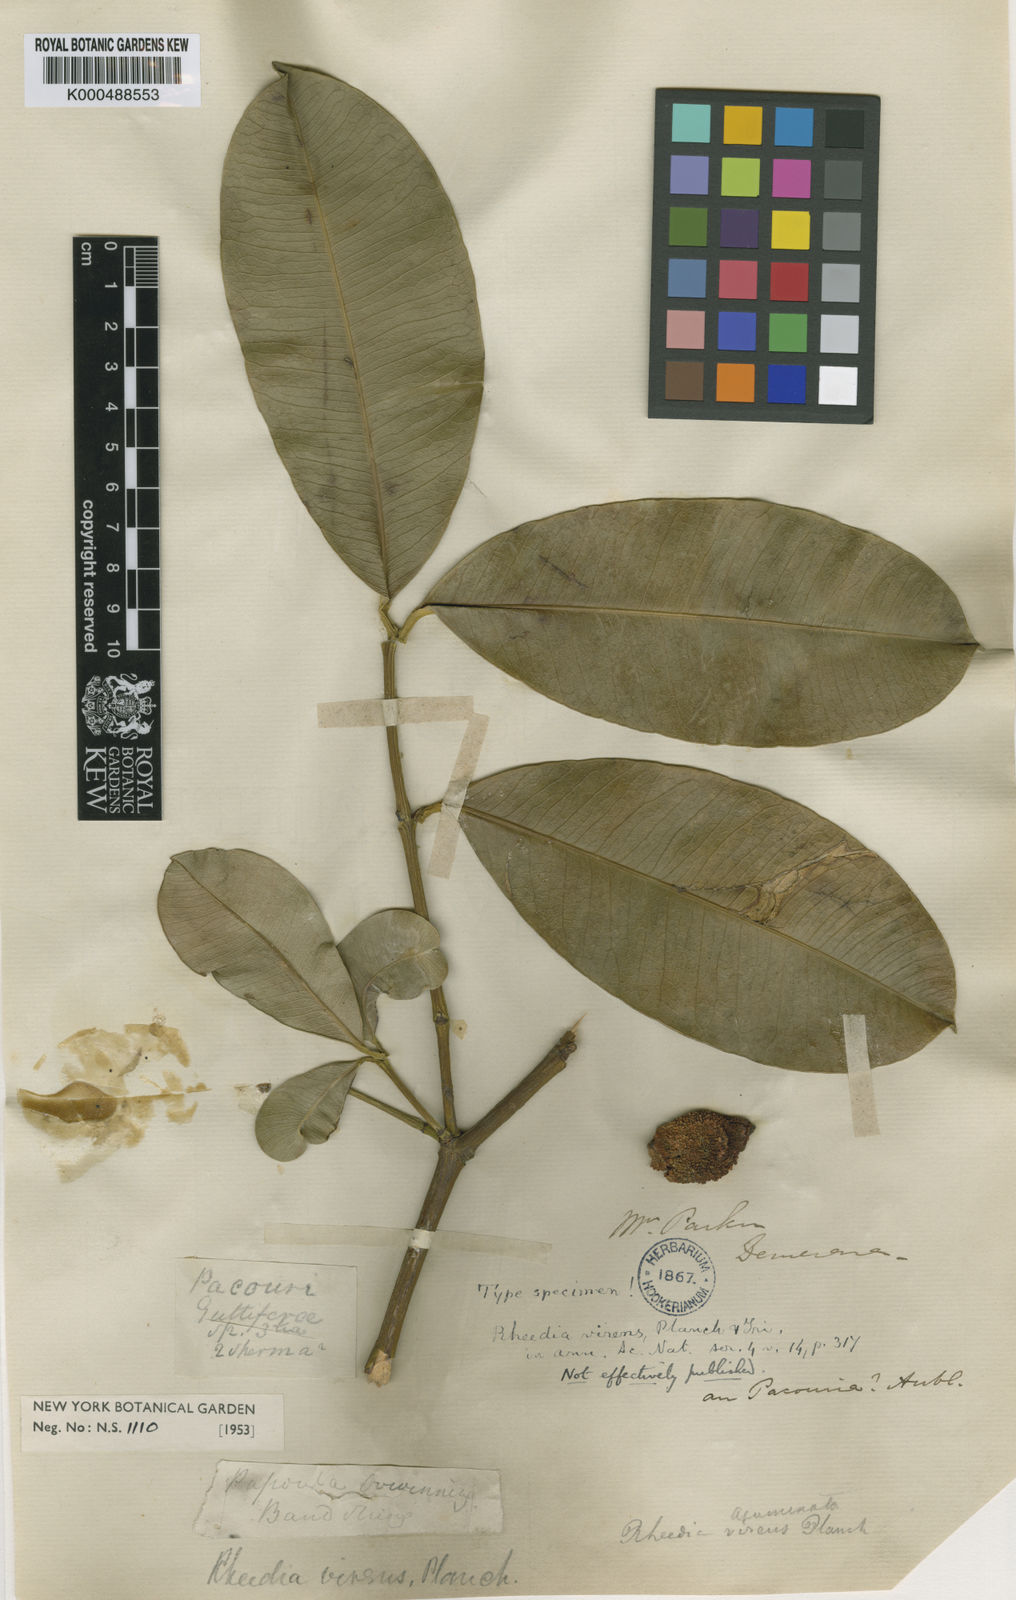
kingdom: Plantae
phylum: Tracheophyta
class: Magnoliopsida
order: Malpighiales
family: Clusiaceae
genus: Garcinia
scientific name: Garcinia
